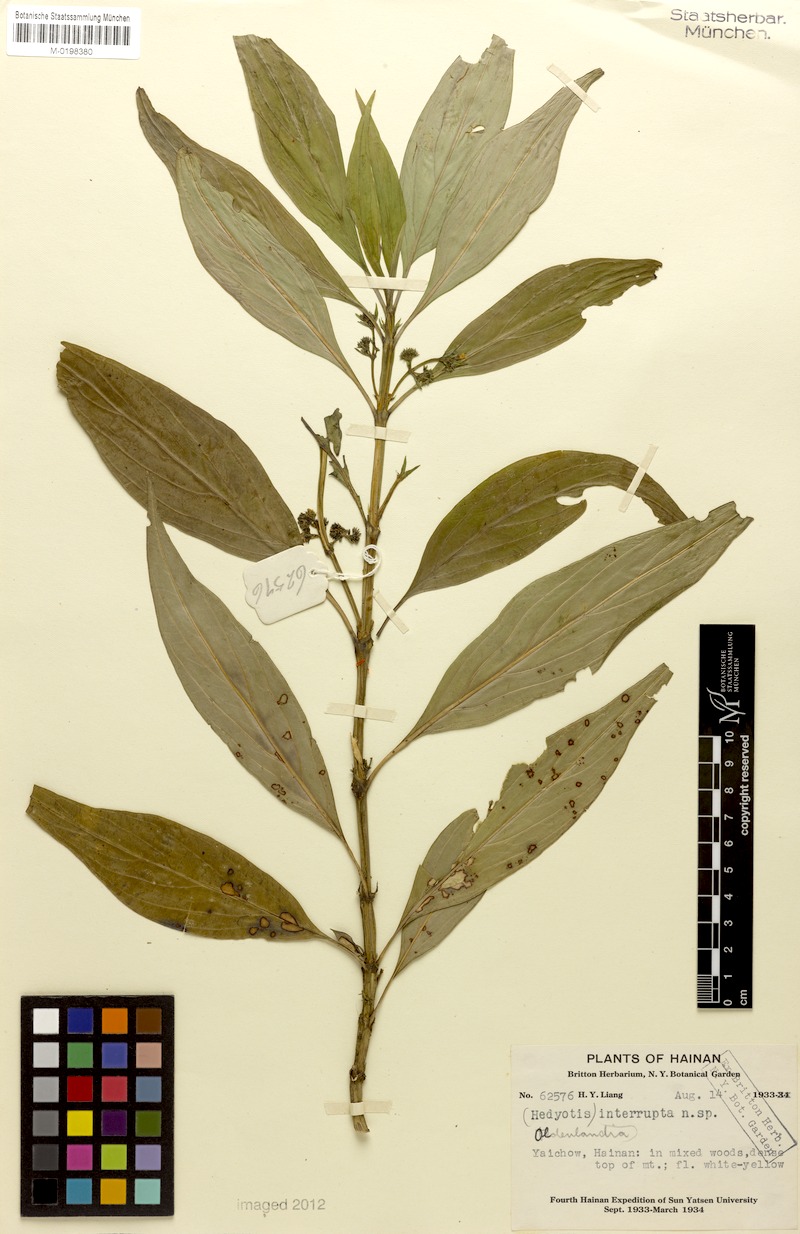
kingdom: Plantae
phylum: Tracheophyta
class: Magnoliopsida
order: Gentianales
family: Rubiaceae
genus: Hedyotis
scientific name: Hedyotis interrupta
